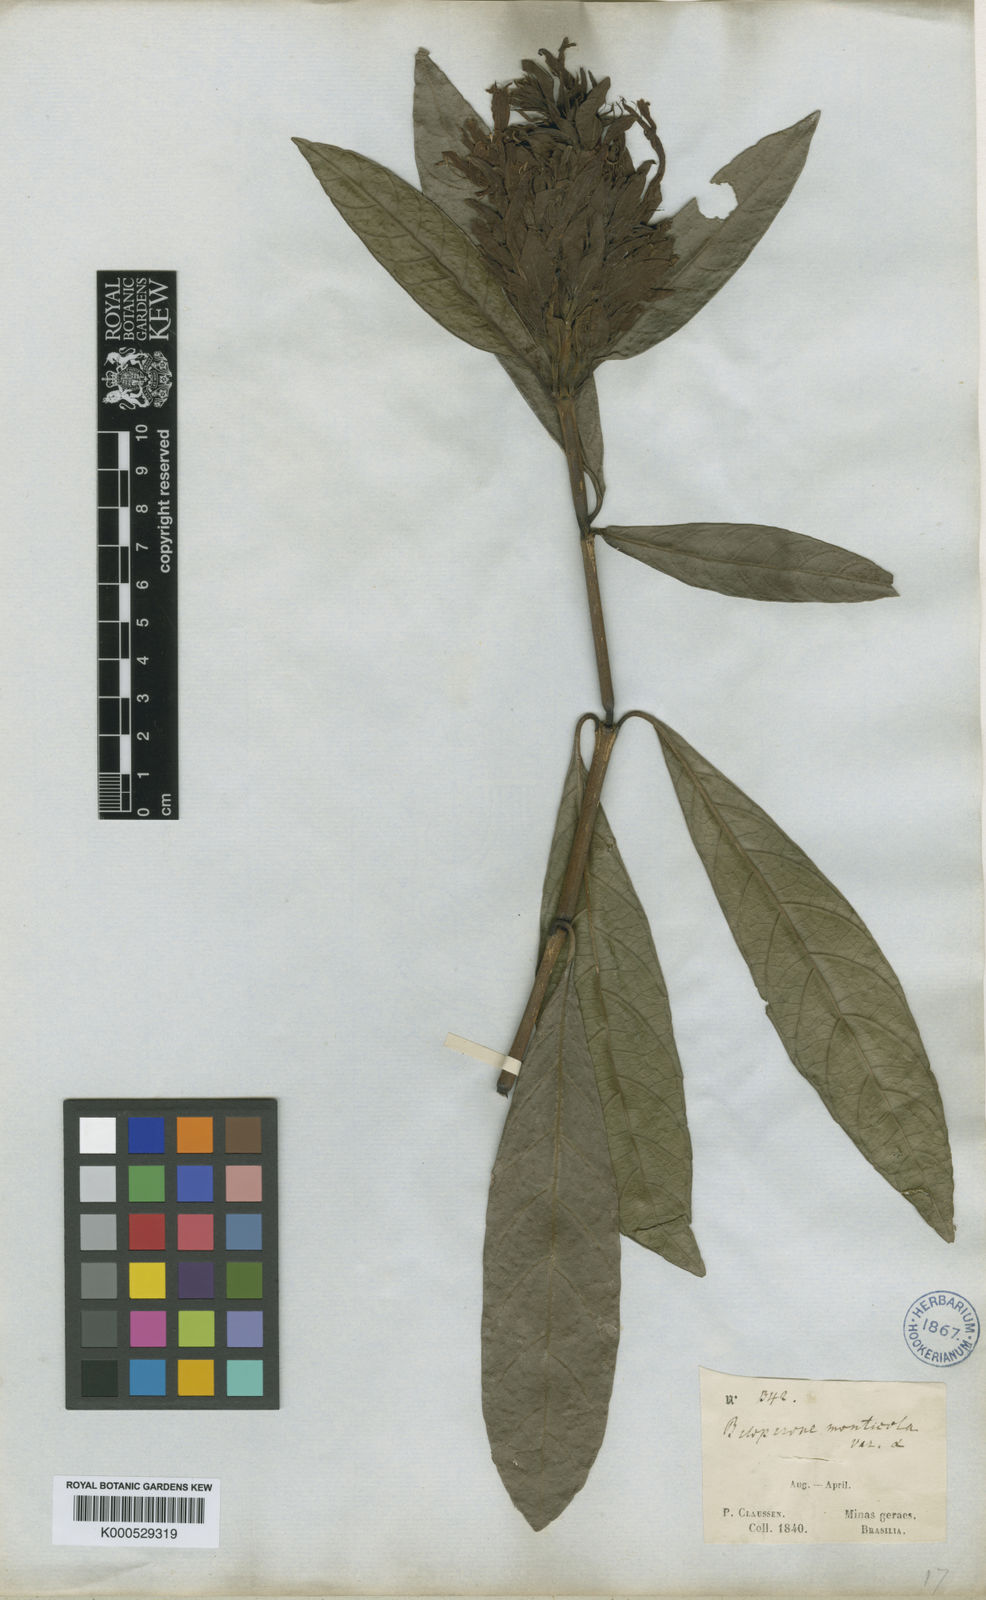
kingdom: Plantae
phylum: Tracheophyta
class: Magnoliopsida
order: Lamiales
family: Acanthaceae
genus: Justicia
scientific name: Justicia monticola
